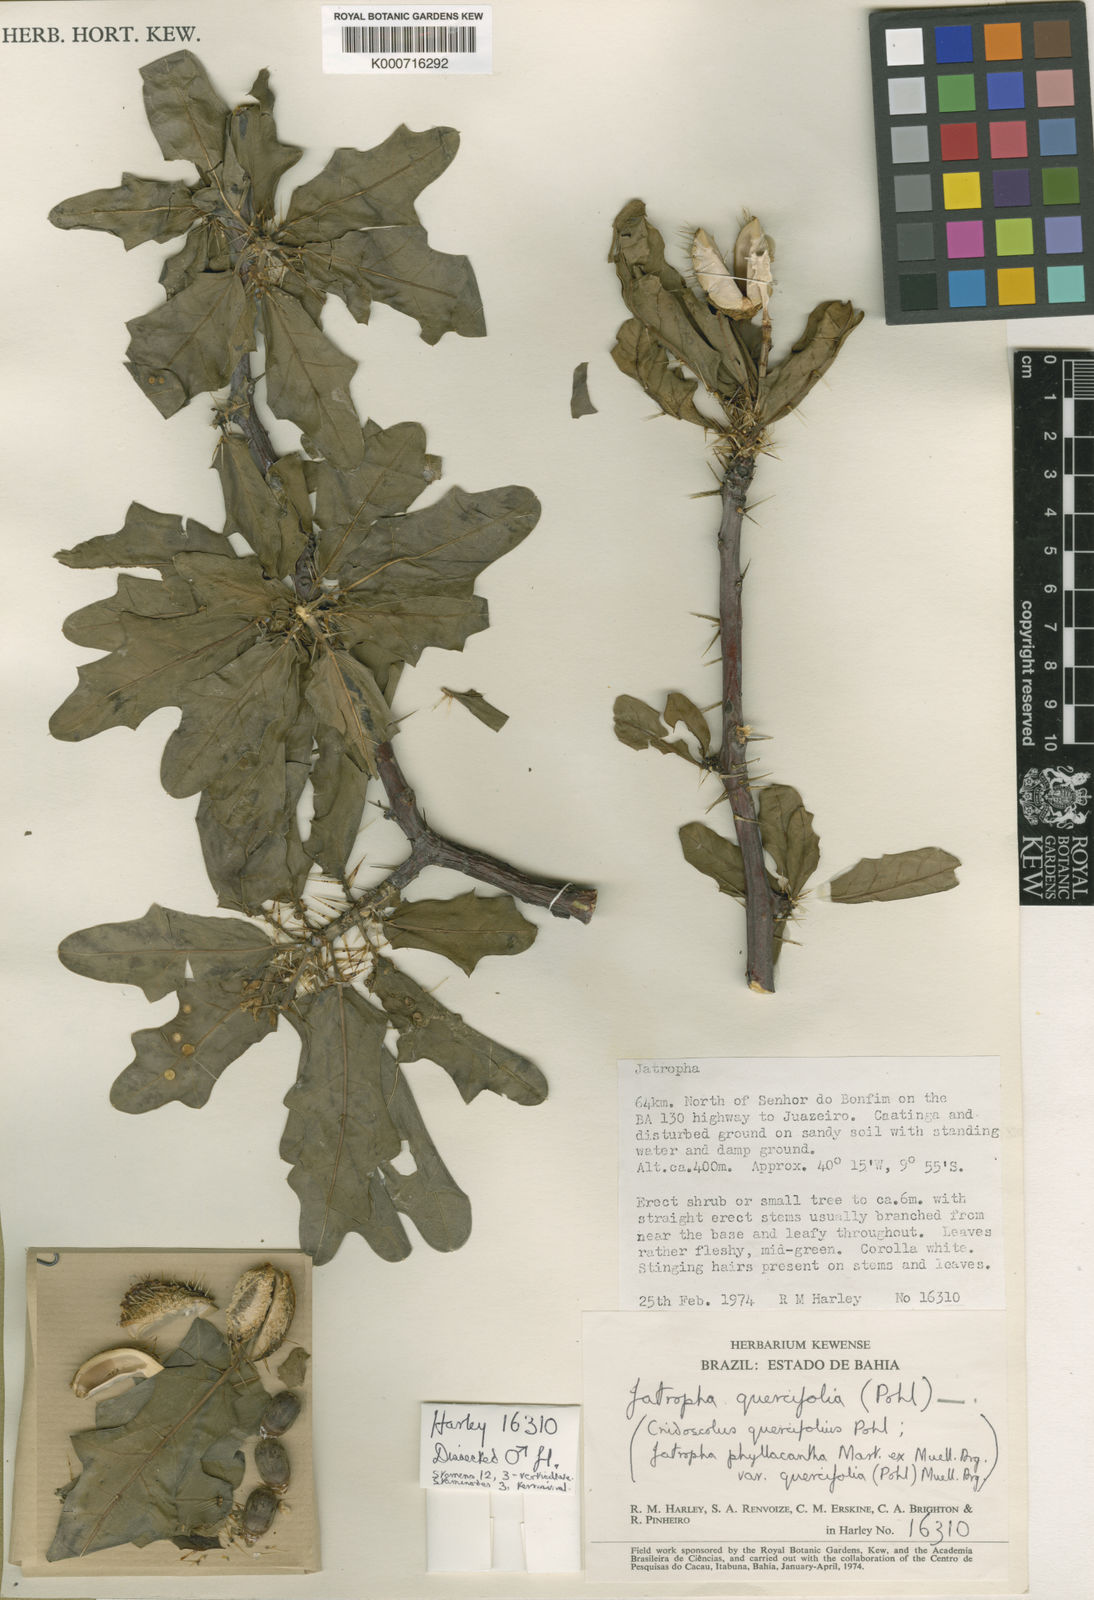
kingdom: Plantae
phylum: Tracheophyta
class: Magnoliopsida
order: Malpighiales
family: Euphorbiaceae
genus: Cnidoscolus
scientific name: Cnidoscolus quercifolius
